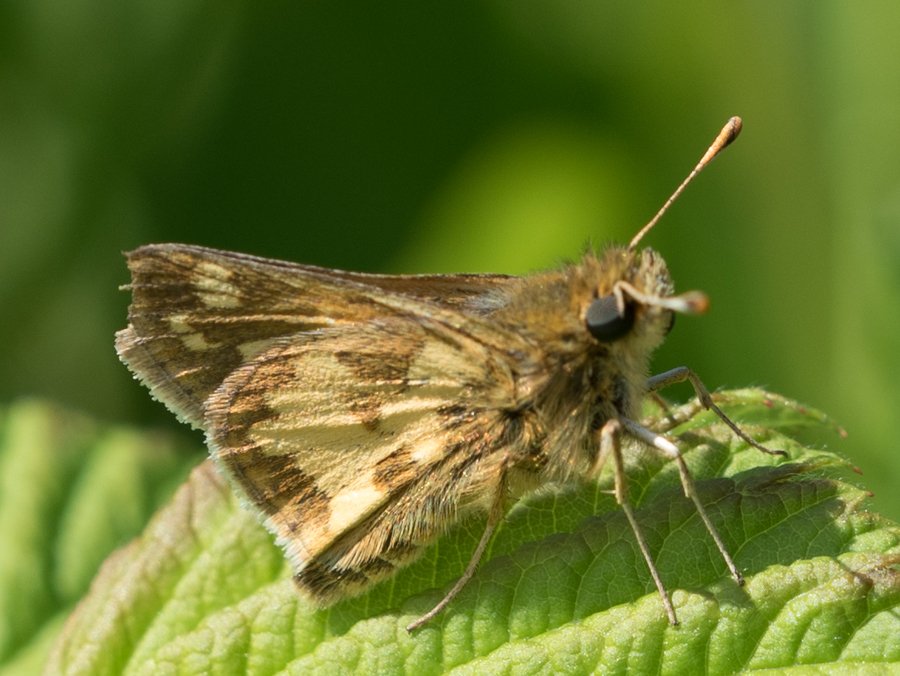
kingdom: Animalia
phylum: Arthropoda
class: Insecta
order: Lepidoptera
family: Hesperiidae
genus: Polites
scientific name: Polites coras
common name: Peck's Skipper
